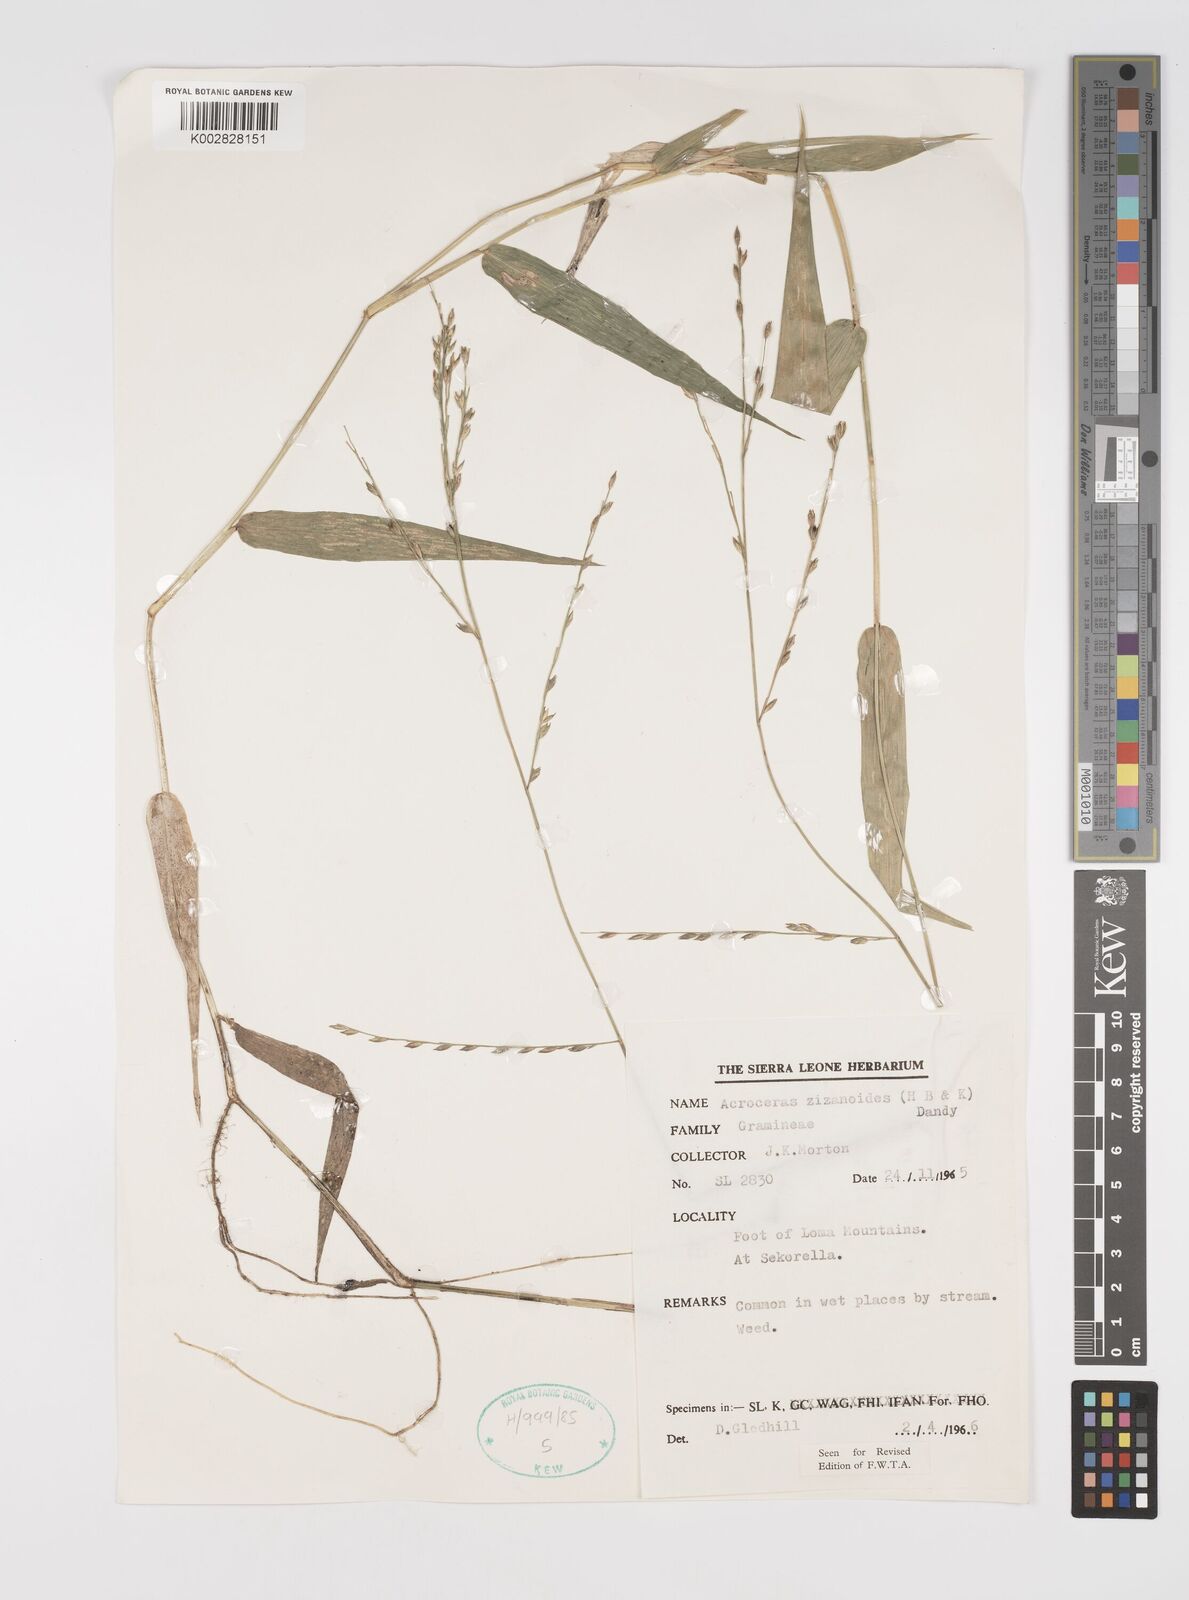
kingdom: Plantae
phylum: Tracheophyta
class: Liliopsida
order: Poales
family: Poaceae
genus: Acroceras
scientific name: Acroceras zizanioides
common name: Oat grass
